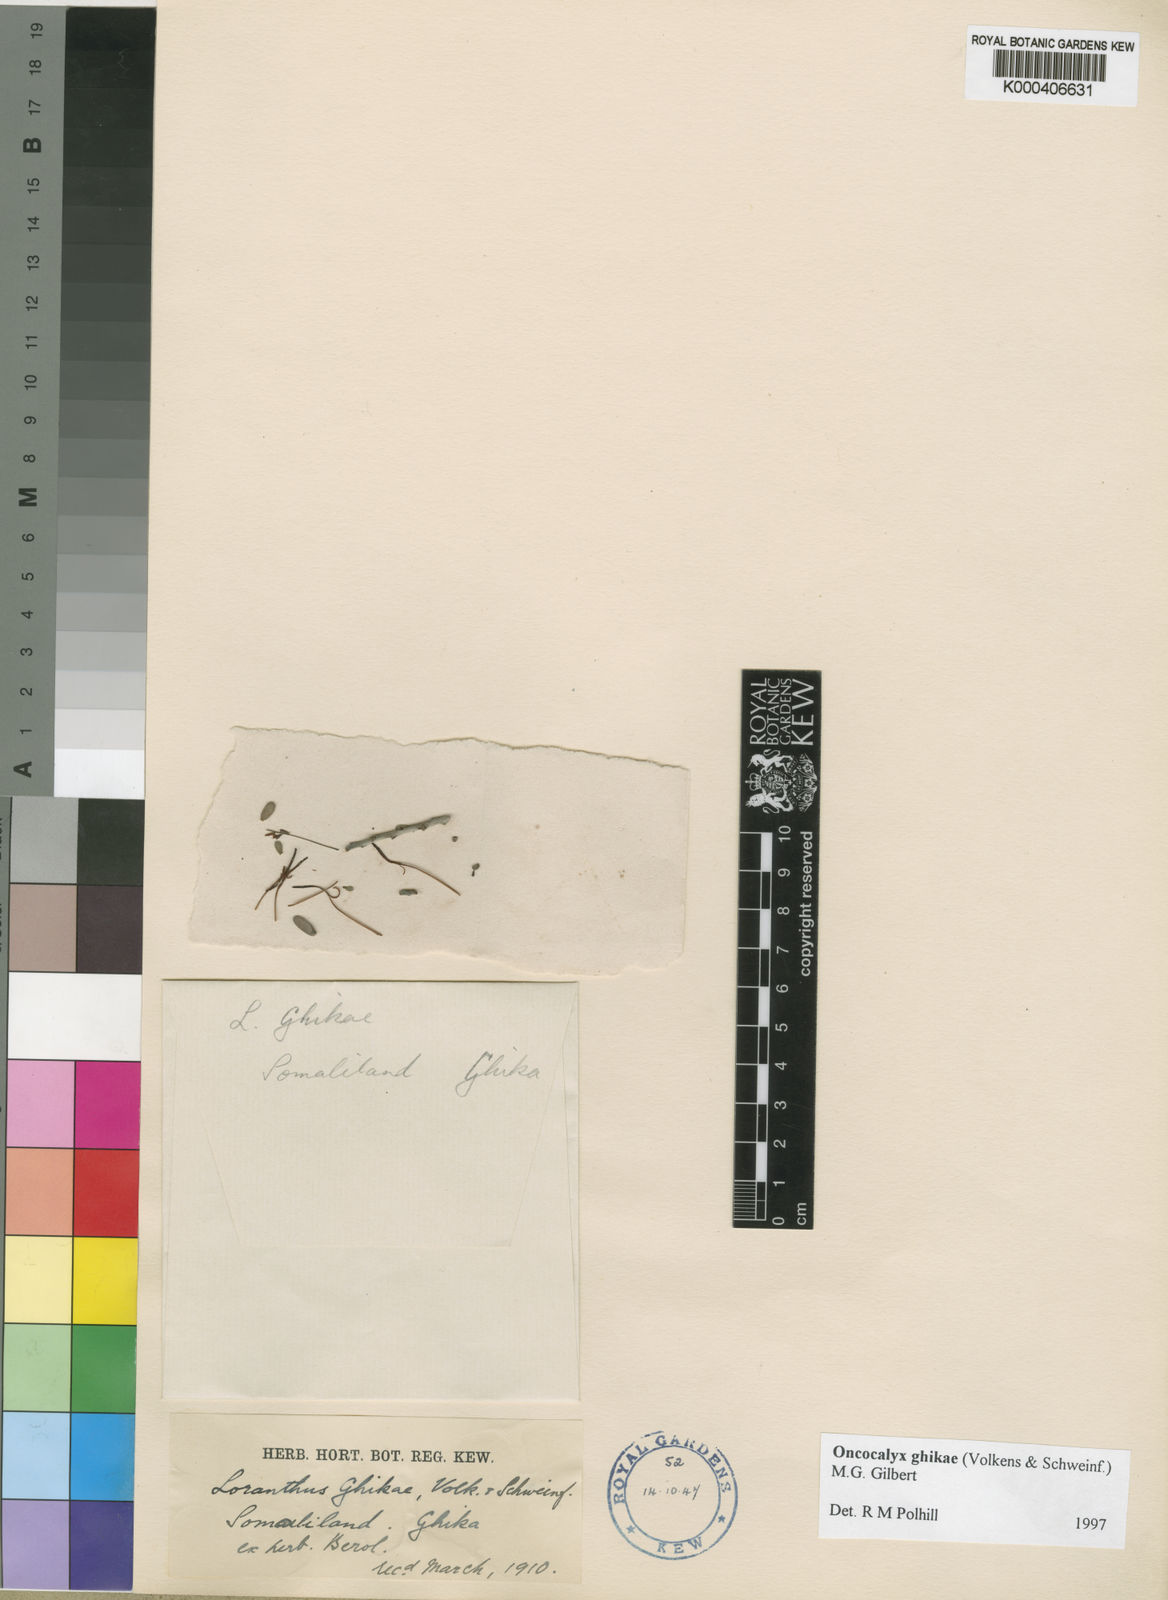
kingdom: Plantae
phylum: Tracheophyta
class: Magnoliopsida
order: Santalales
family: Loranthaceae
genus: Oncocalyx
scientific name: Oncocalyx ghikae
